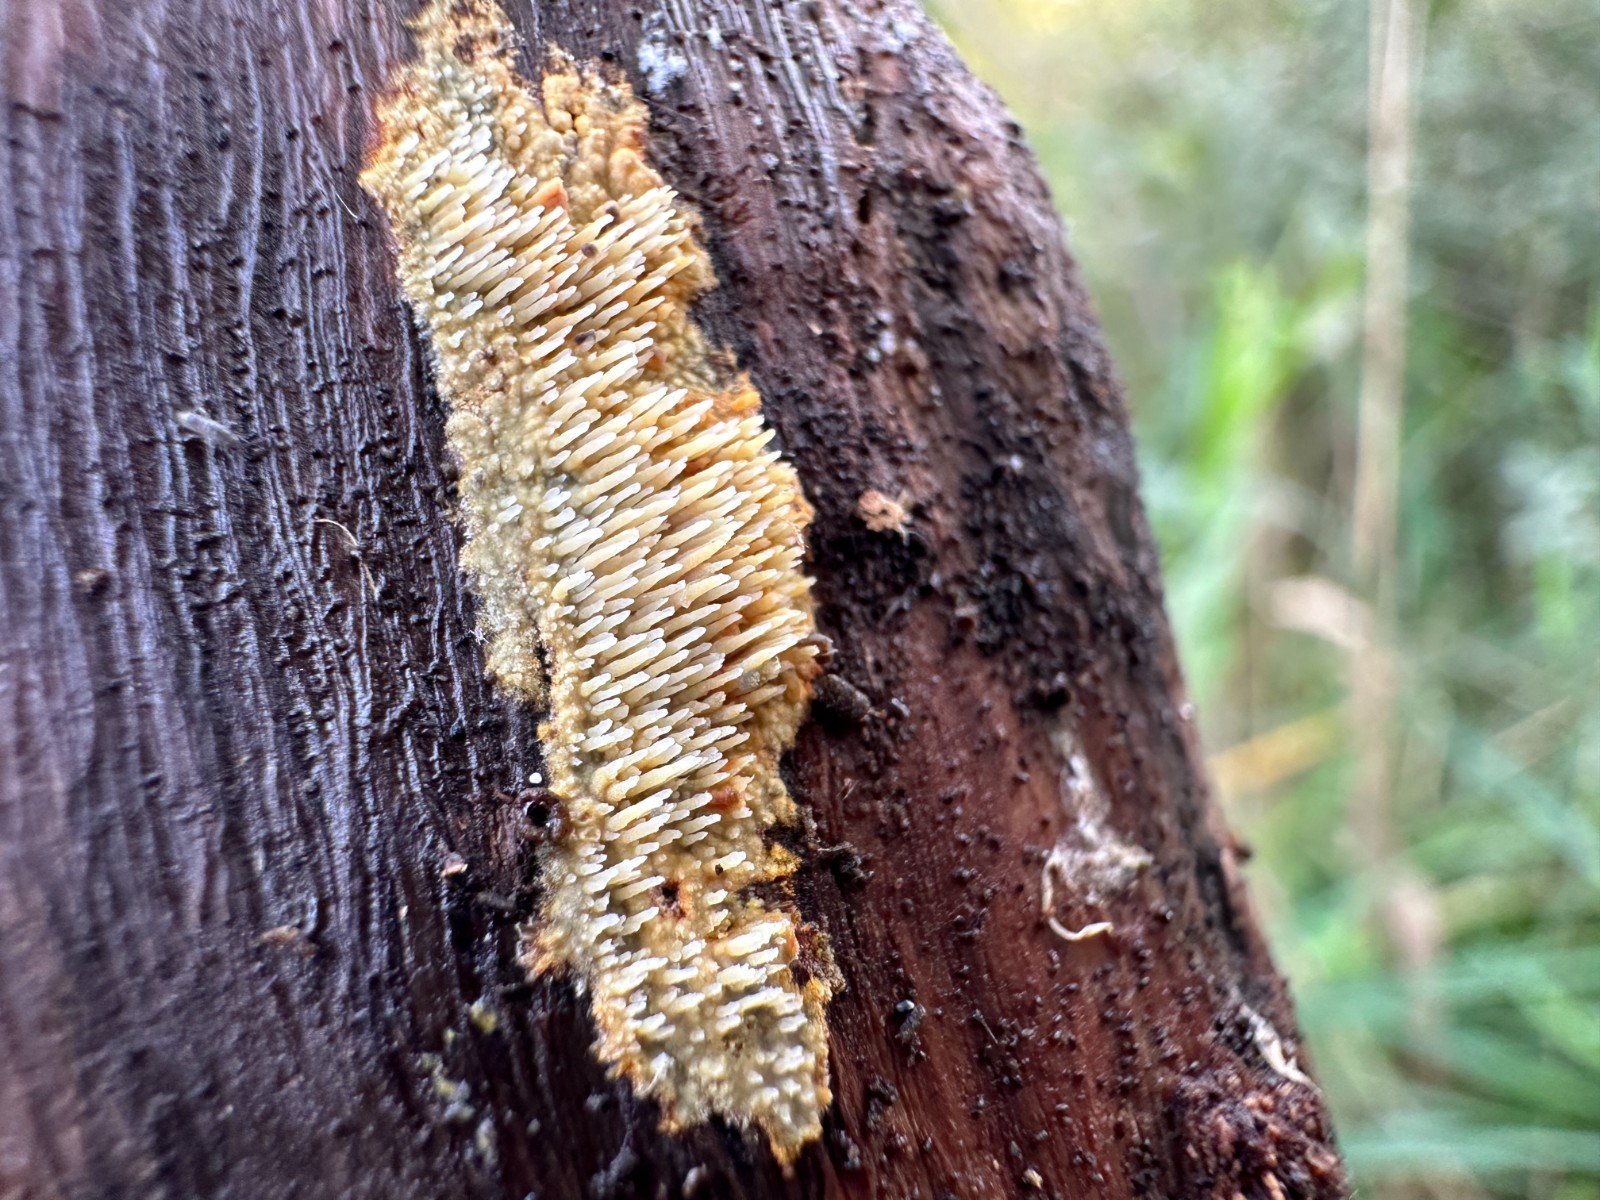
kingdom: Fungi
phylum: Basidiomycota
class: Agaricomycetes
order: Polyporales
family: Meruliaceae
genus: Mycoaciella
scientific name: Mycoaciella bispora
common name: stalaktit-vokspig
